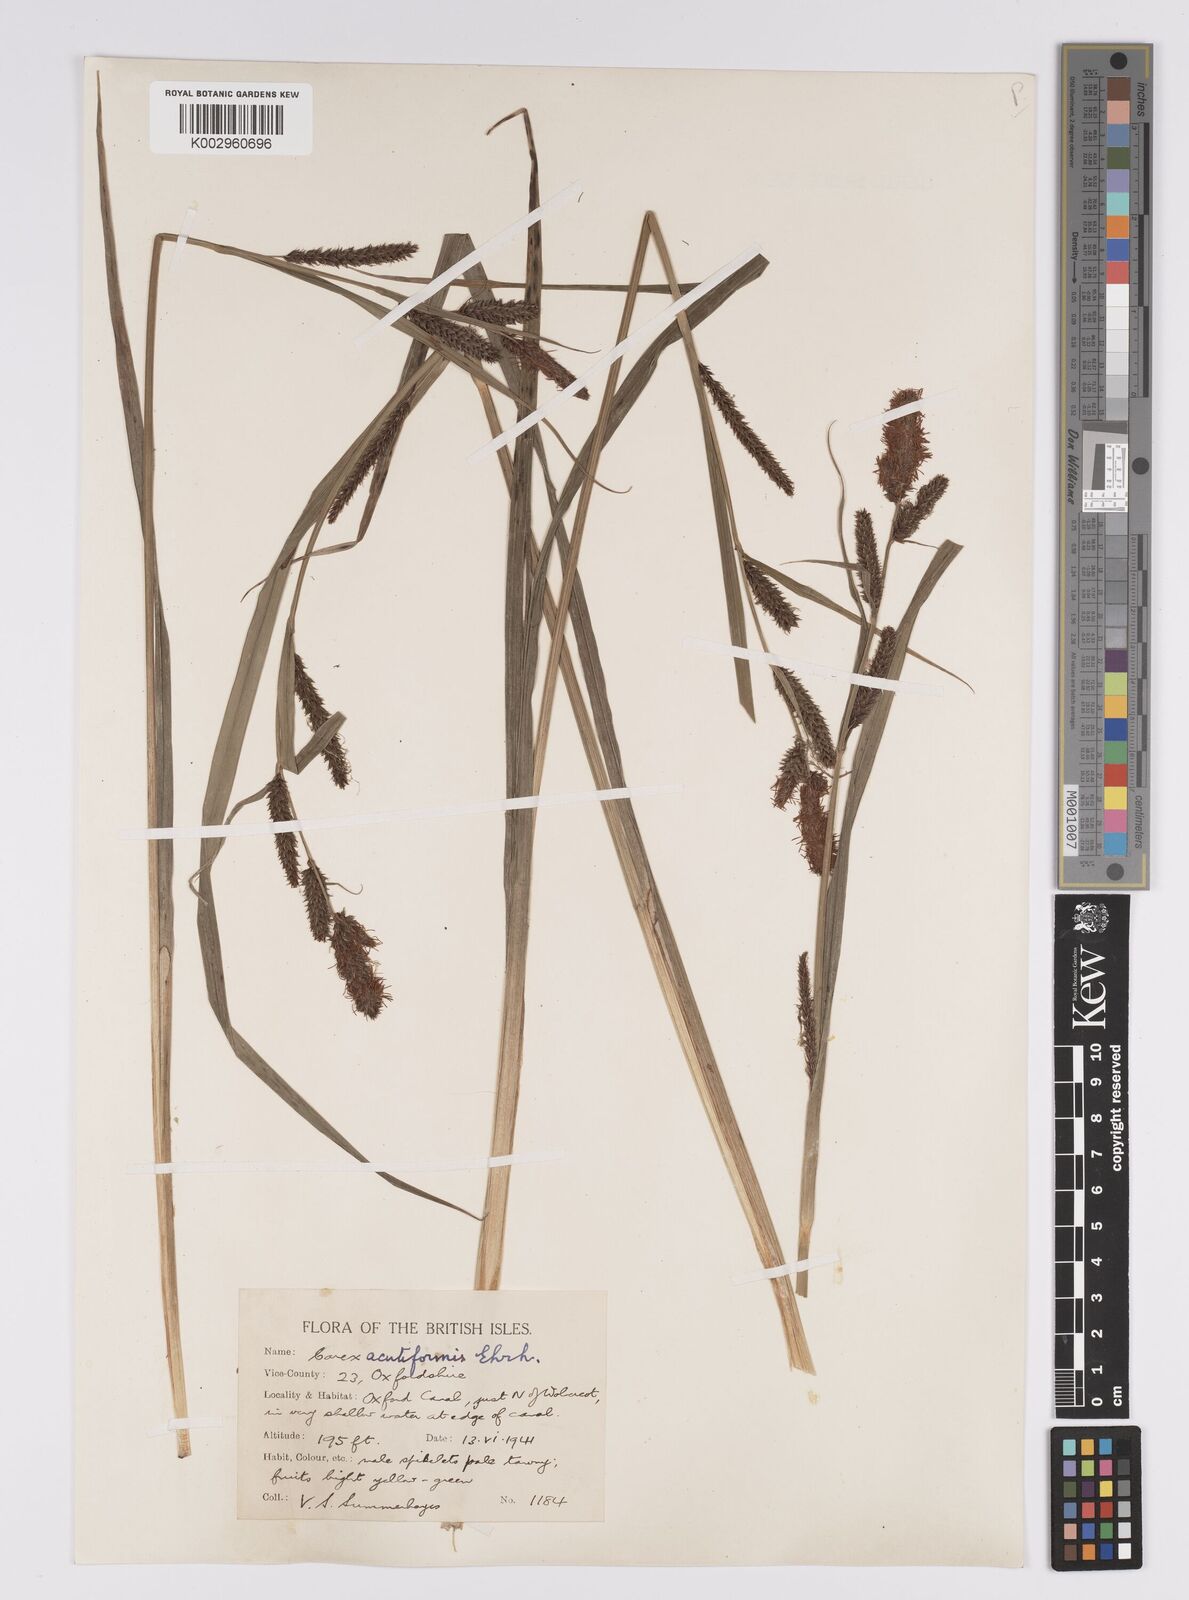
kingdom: Plantae
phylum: Tracheophyta
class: Liliopsida
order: Poales
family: Cyperaceae
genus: Carex
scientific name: Carex acutiformis
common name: Lesser pond-sedge
